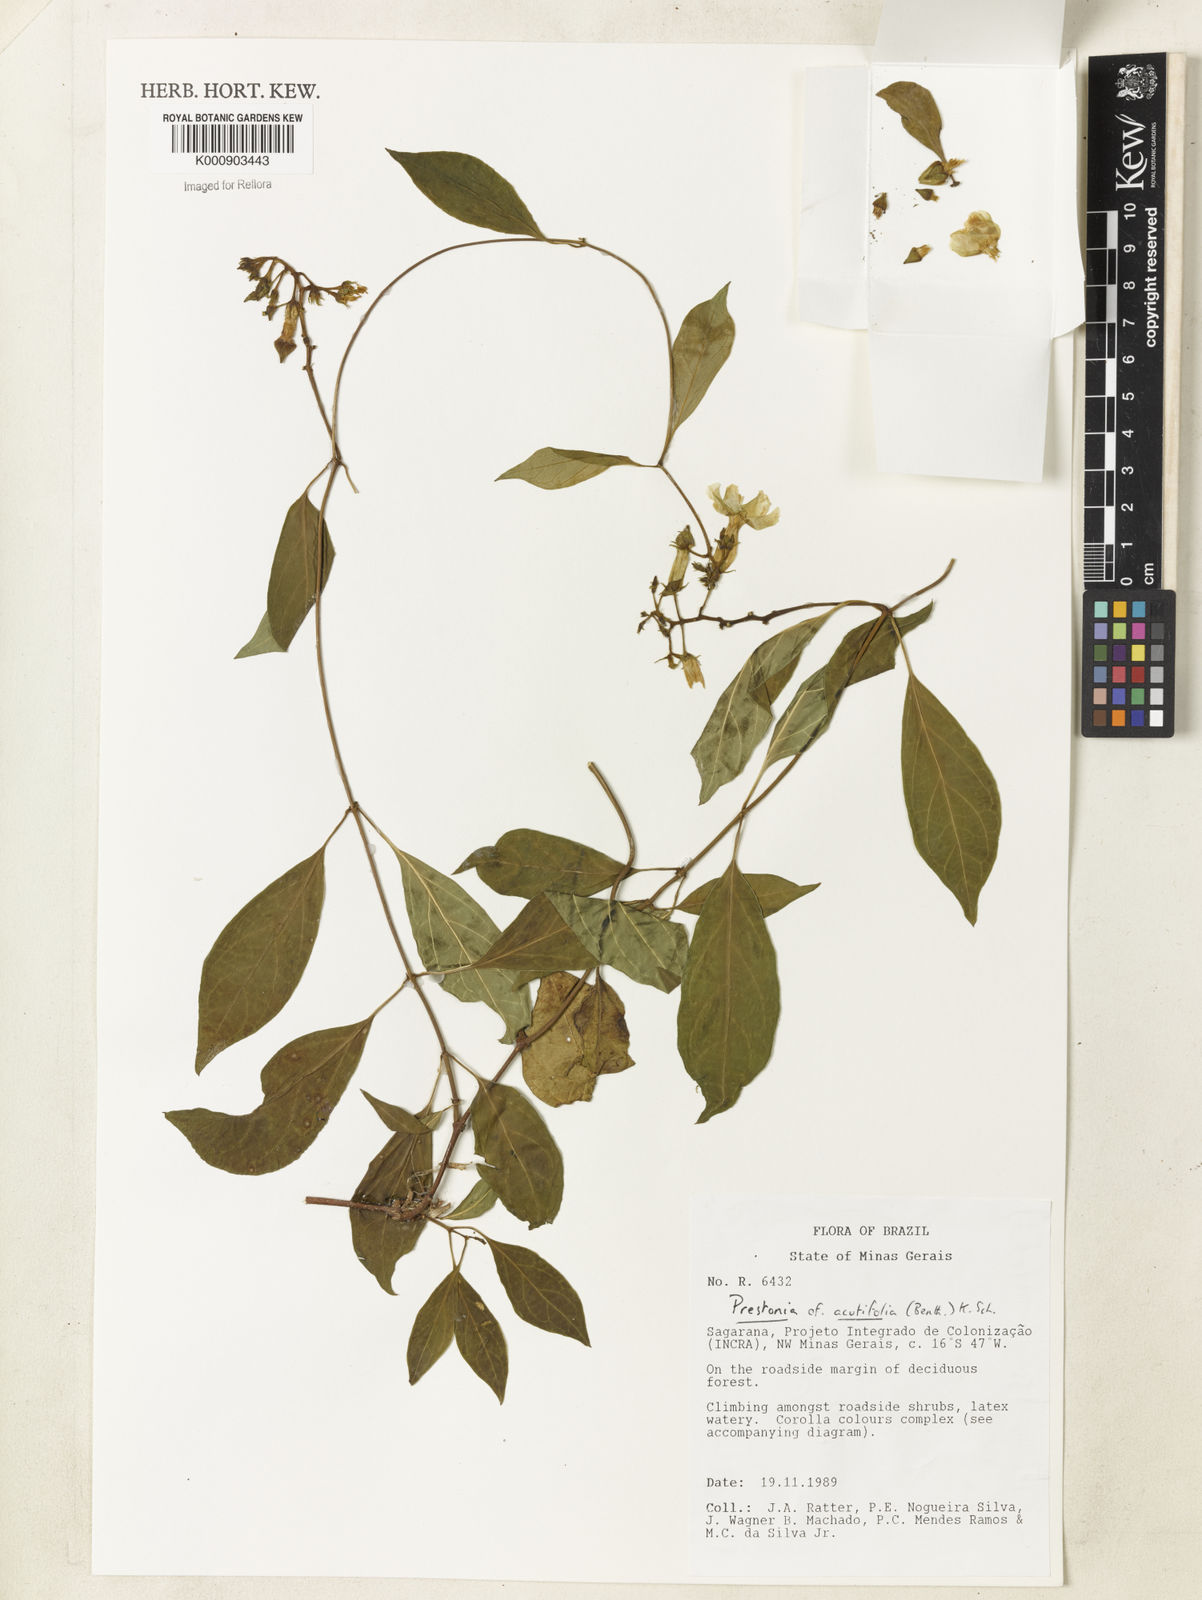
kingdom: Plantae
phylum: Tracheophyta
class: Magnoliopsida
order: Gentianales
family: Apocynaceae
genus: Prestonia
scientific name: Prestonia quinquangularis
